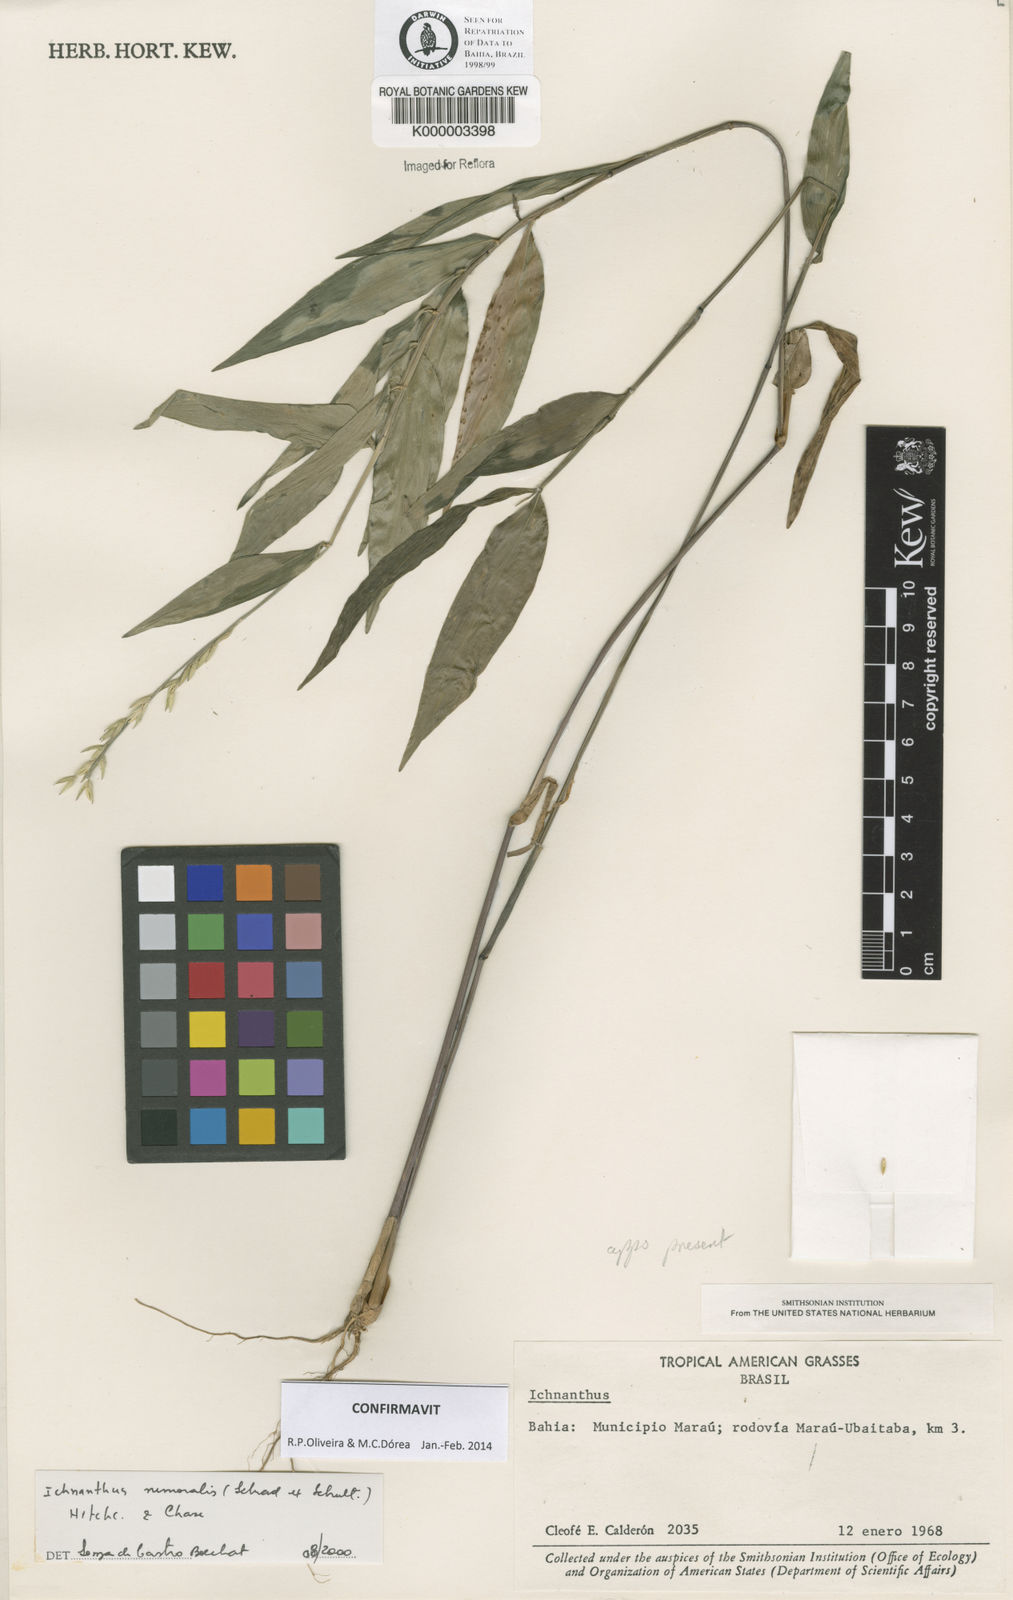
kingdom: Plantae
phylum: Tracheophyta
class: Liliopsida
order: Poales
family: Poaceae
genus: Ichnanthus
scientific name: Ichnanthus nemoralis
